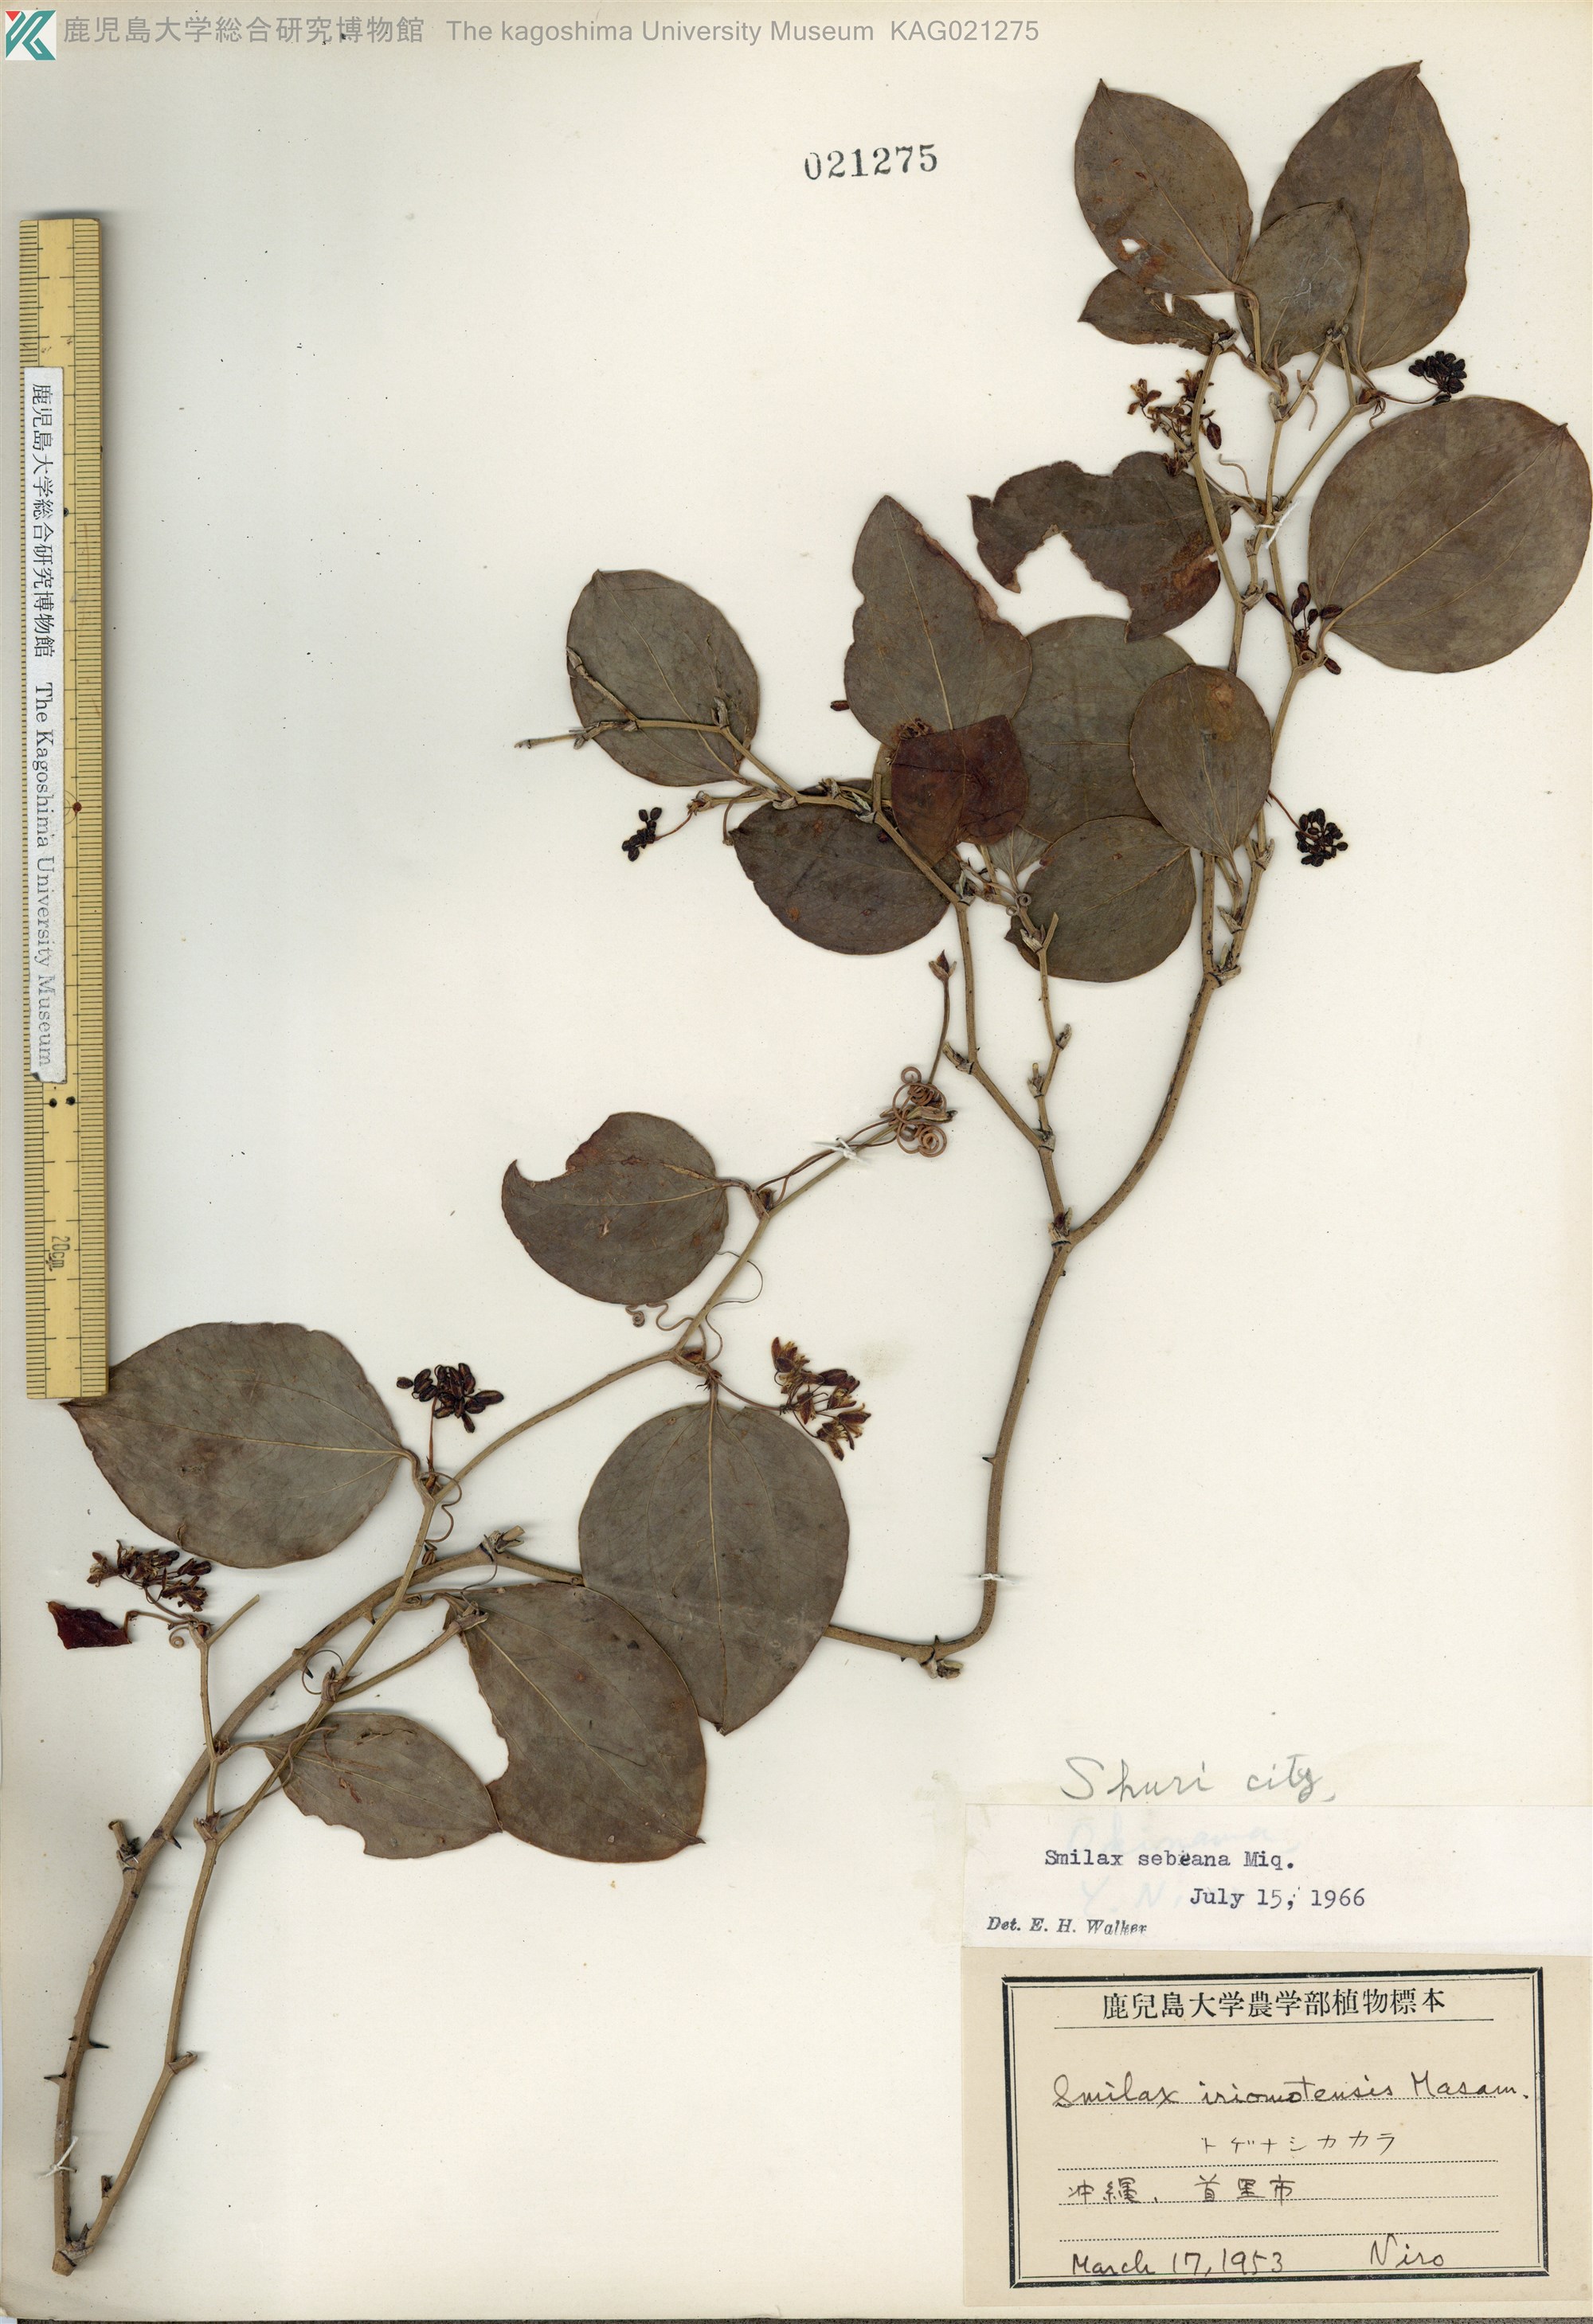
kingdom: Plantae
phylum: Tracheophyta
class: Liliopsida
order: Liliales
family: Smilacaceae
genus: Smilax
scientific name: Smilax sebeana
